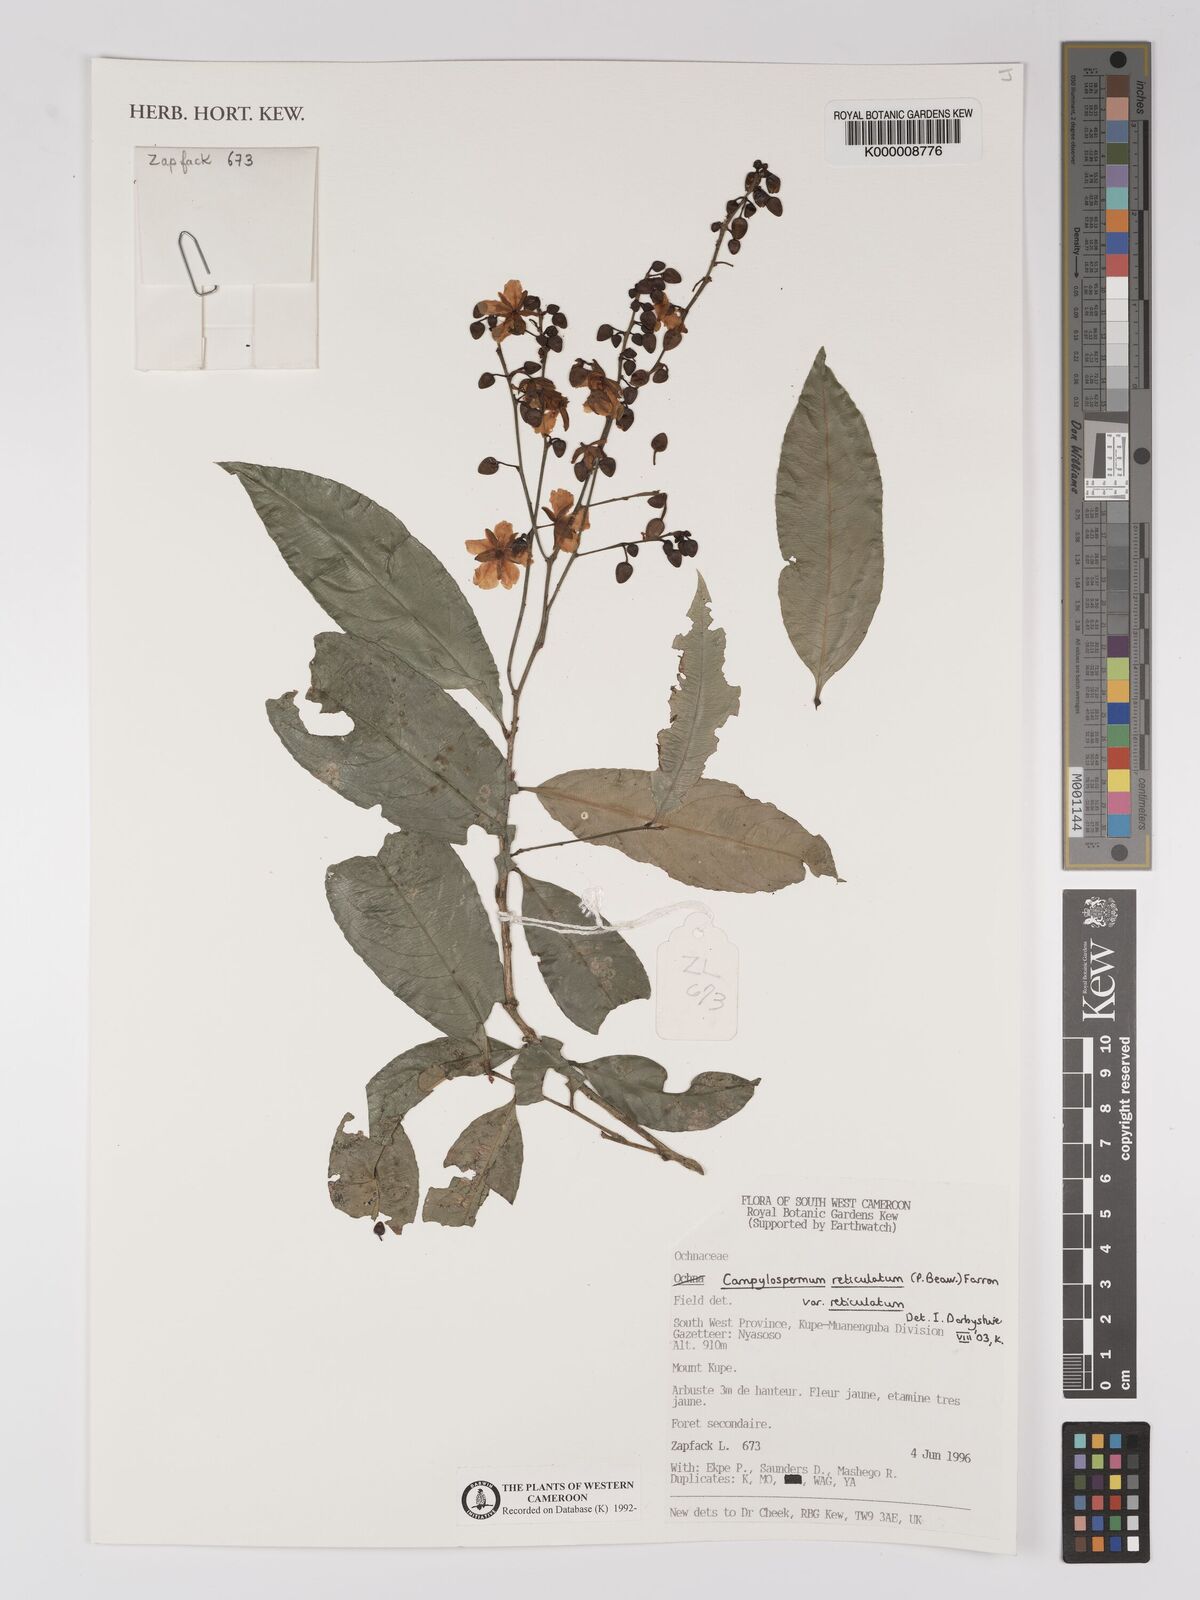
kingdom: Plantae
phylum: Tracheophyta
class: Magnoliopsida
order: Malpighiales
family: Ochnaceae
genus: Campylospermum
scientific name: Campylospermum reticulatum
